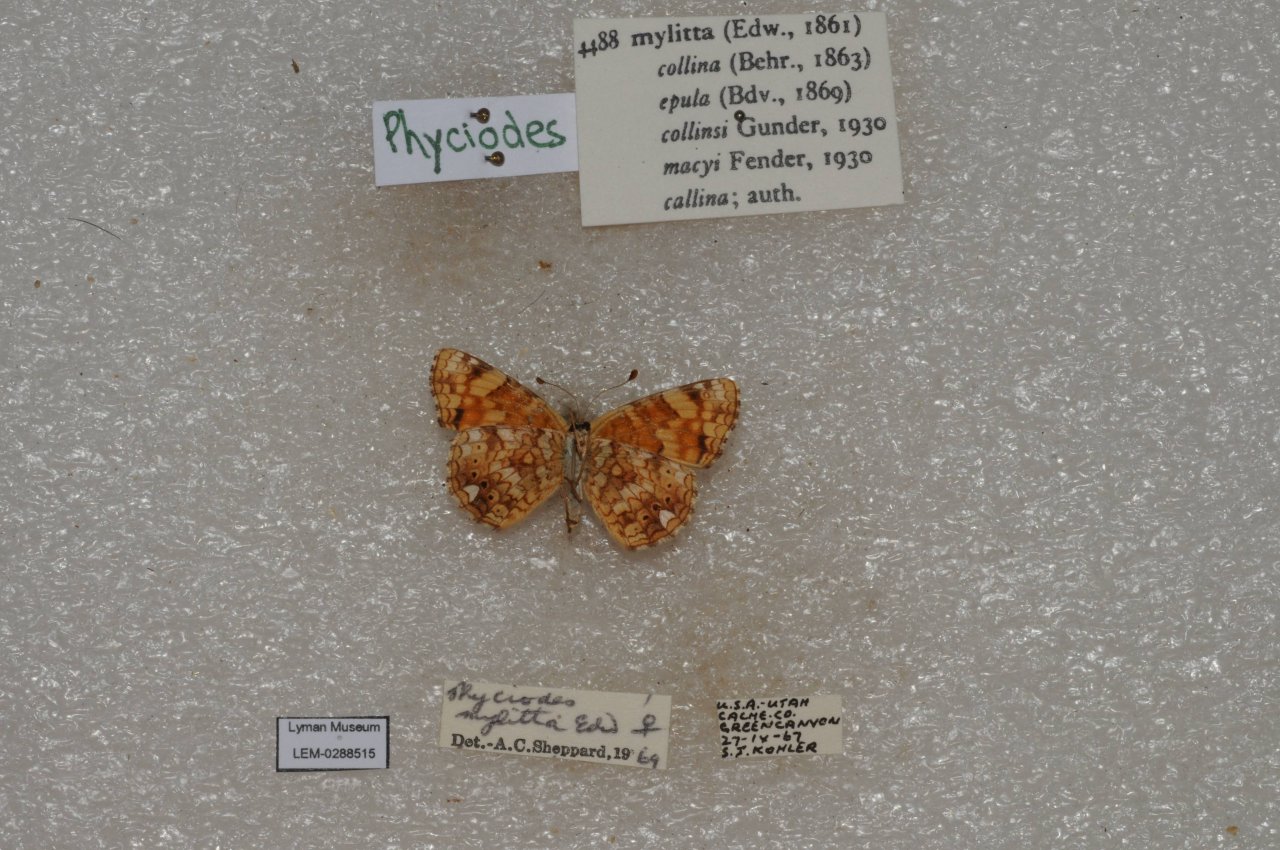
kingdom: Animalia
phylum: Arthropoda
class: Insecta
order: Lepidoptera
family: Nymphalidae
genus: Eresia
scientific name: Eresia aveyrona
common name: Mylitta Crescent
